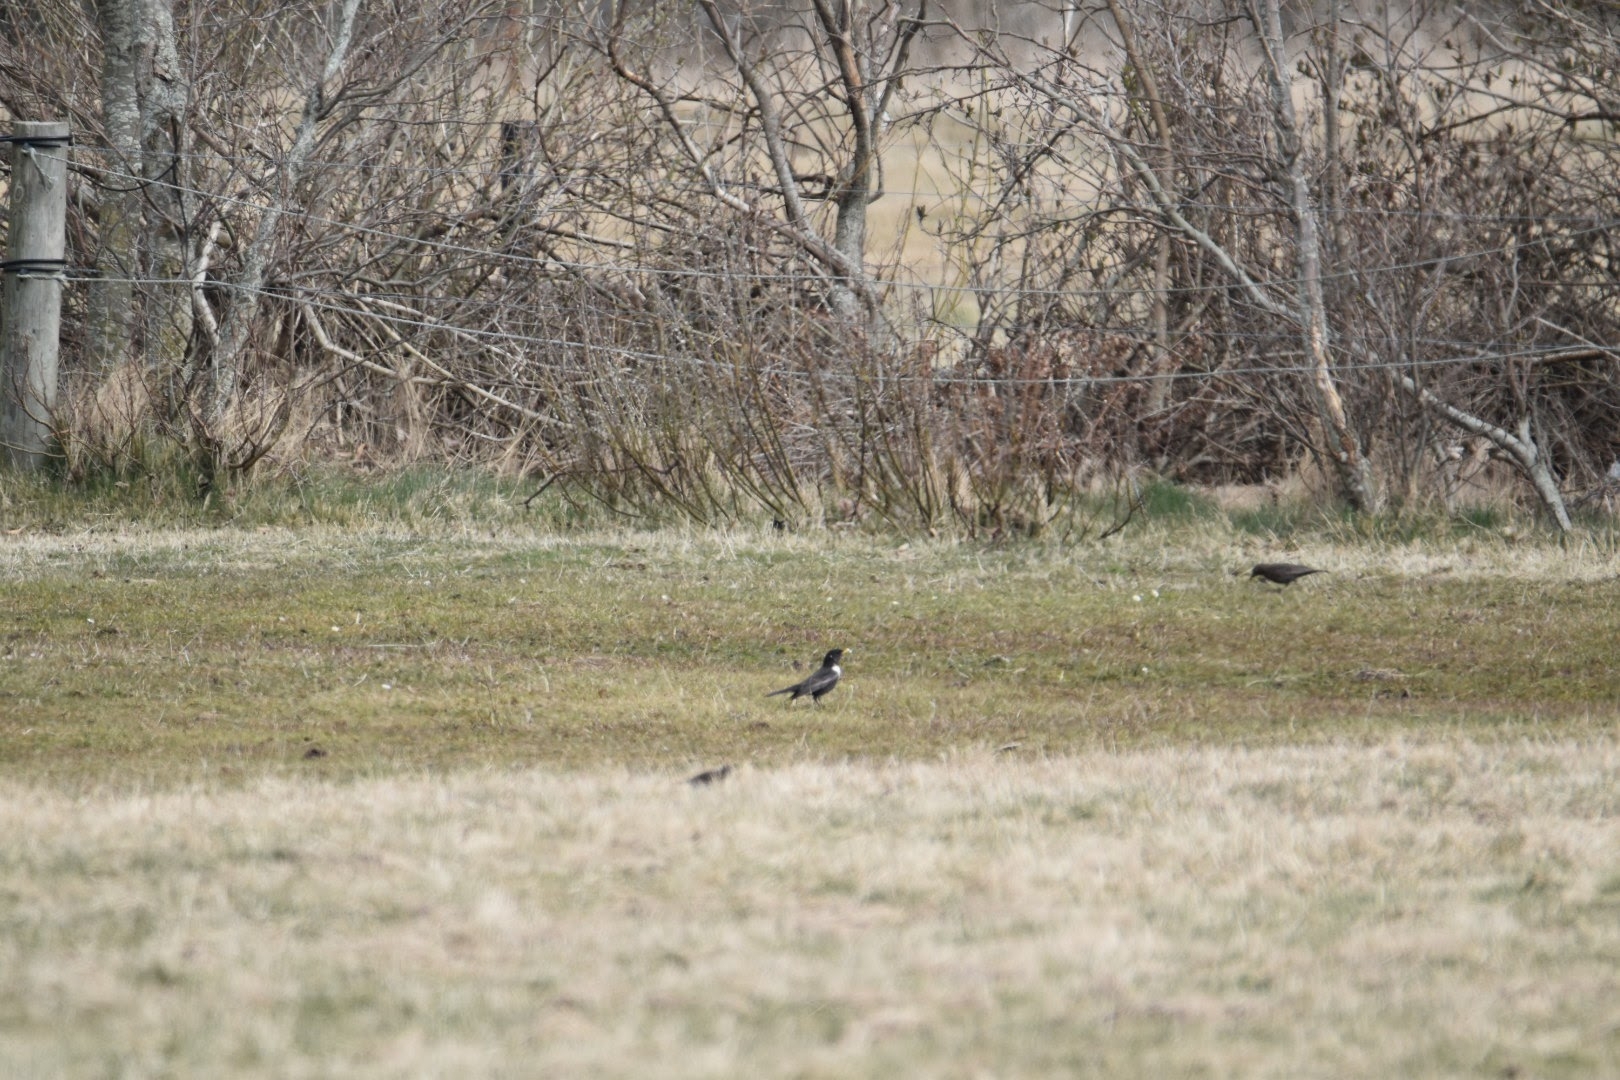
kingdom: Animalia
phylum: Chordata
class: Aves
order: Passeriformes
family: Turdidae
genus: Turdus
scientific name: Turdus torquatus
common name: Ringdrossel
